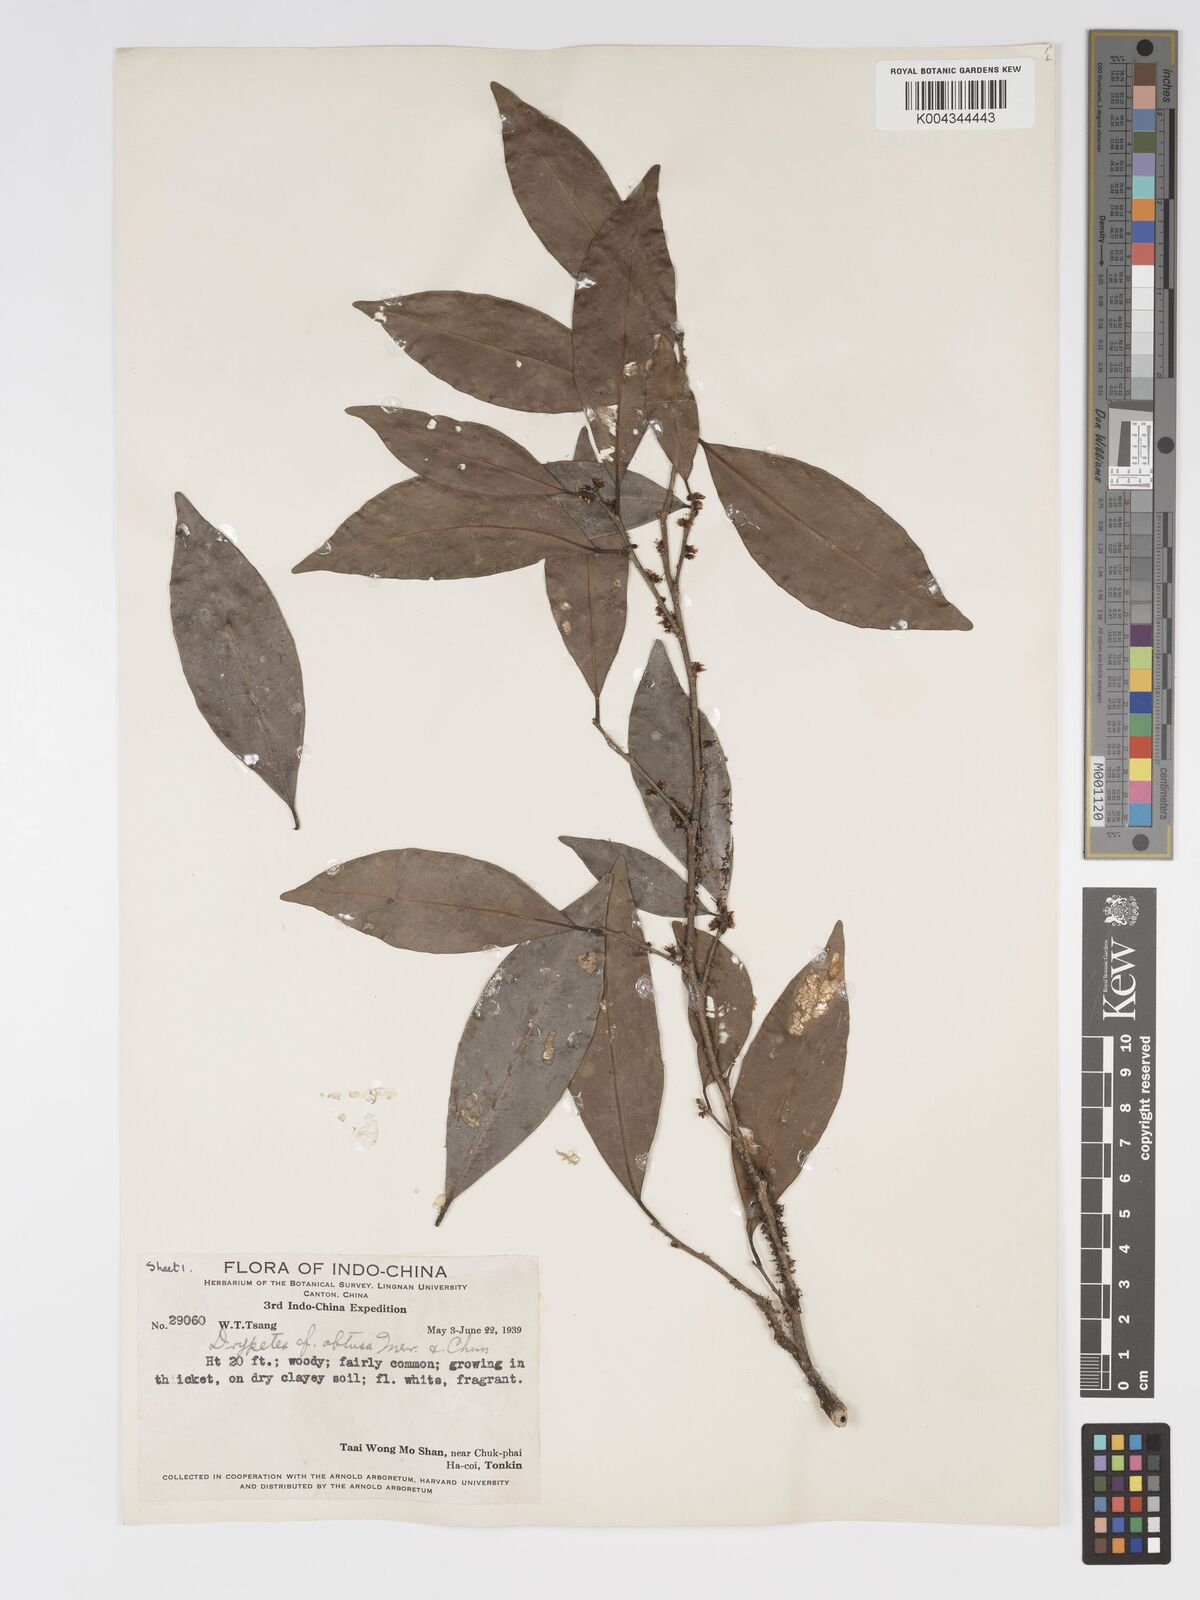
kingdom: Plantae
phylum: Tracheophyta
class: Magnoliopsida
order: Malpighiales
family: Putranjivaceae
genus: Drypetes
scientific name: Drypetes obtusa
